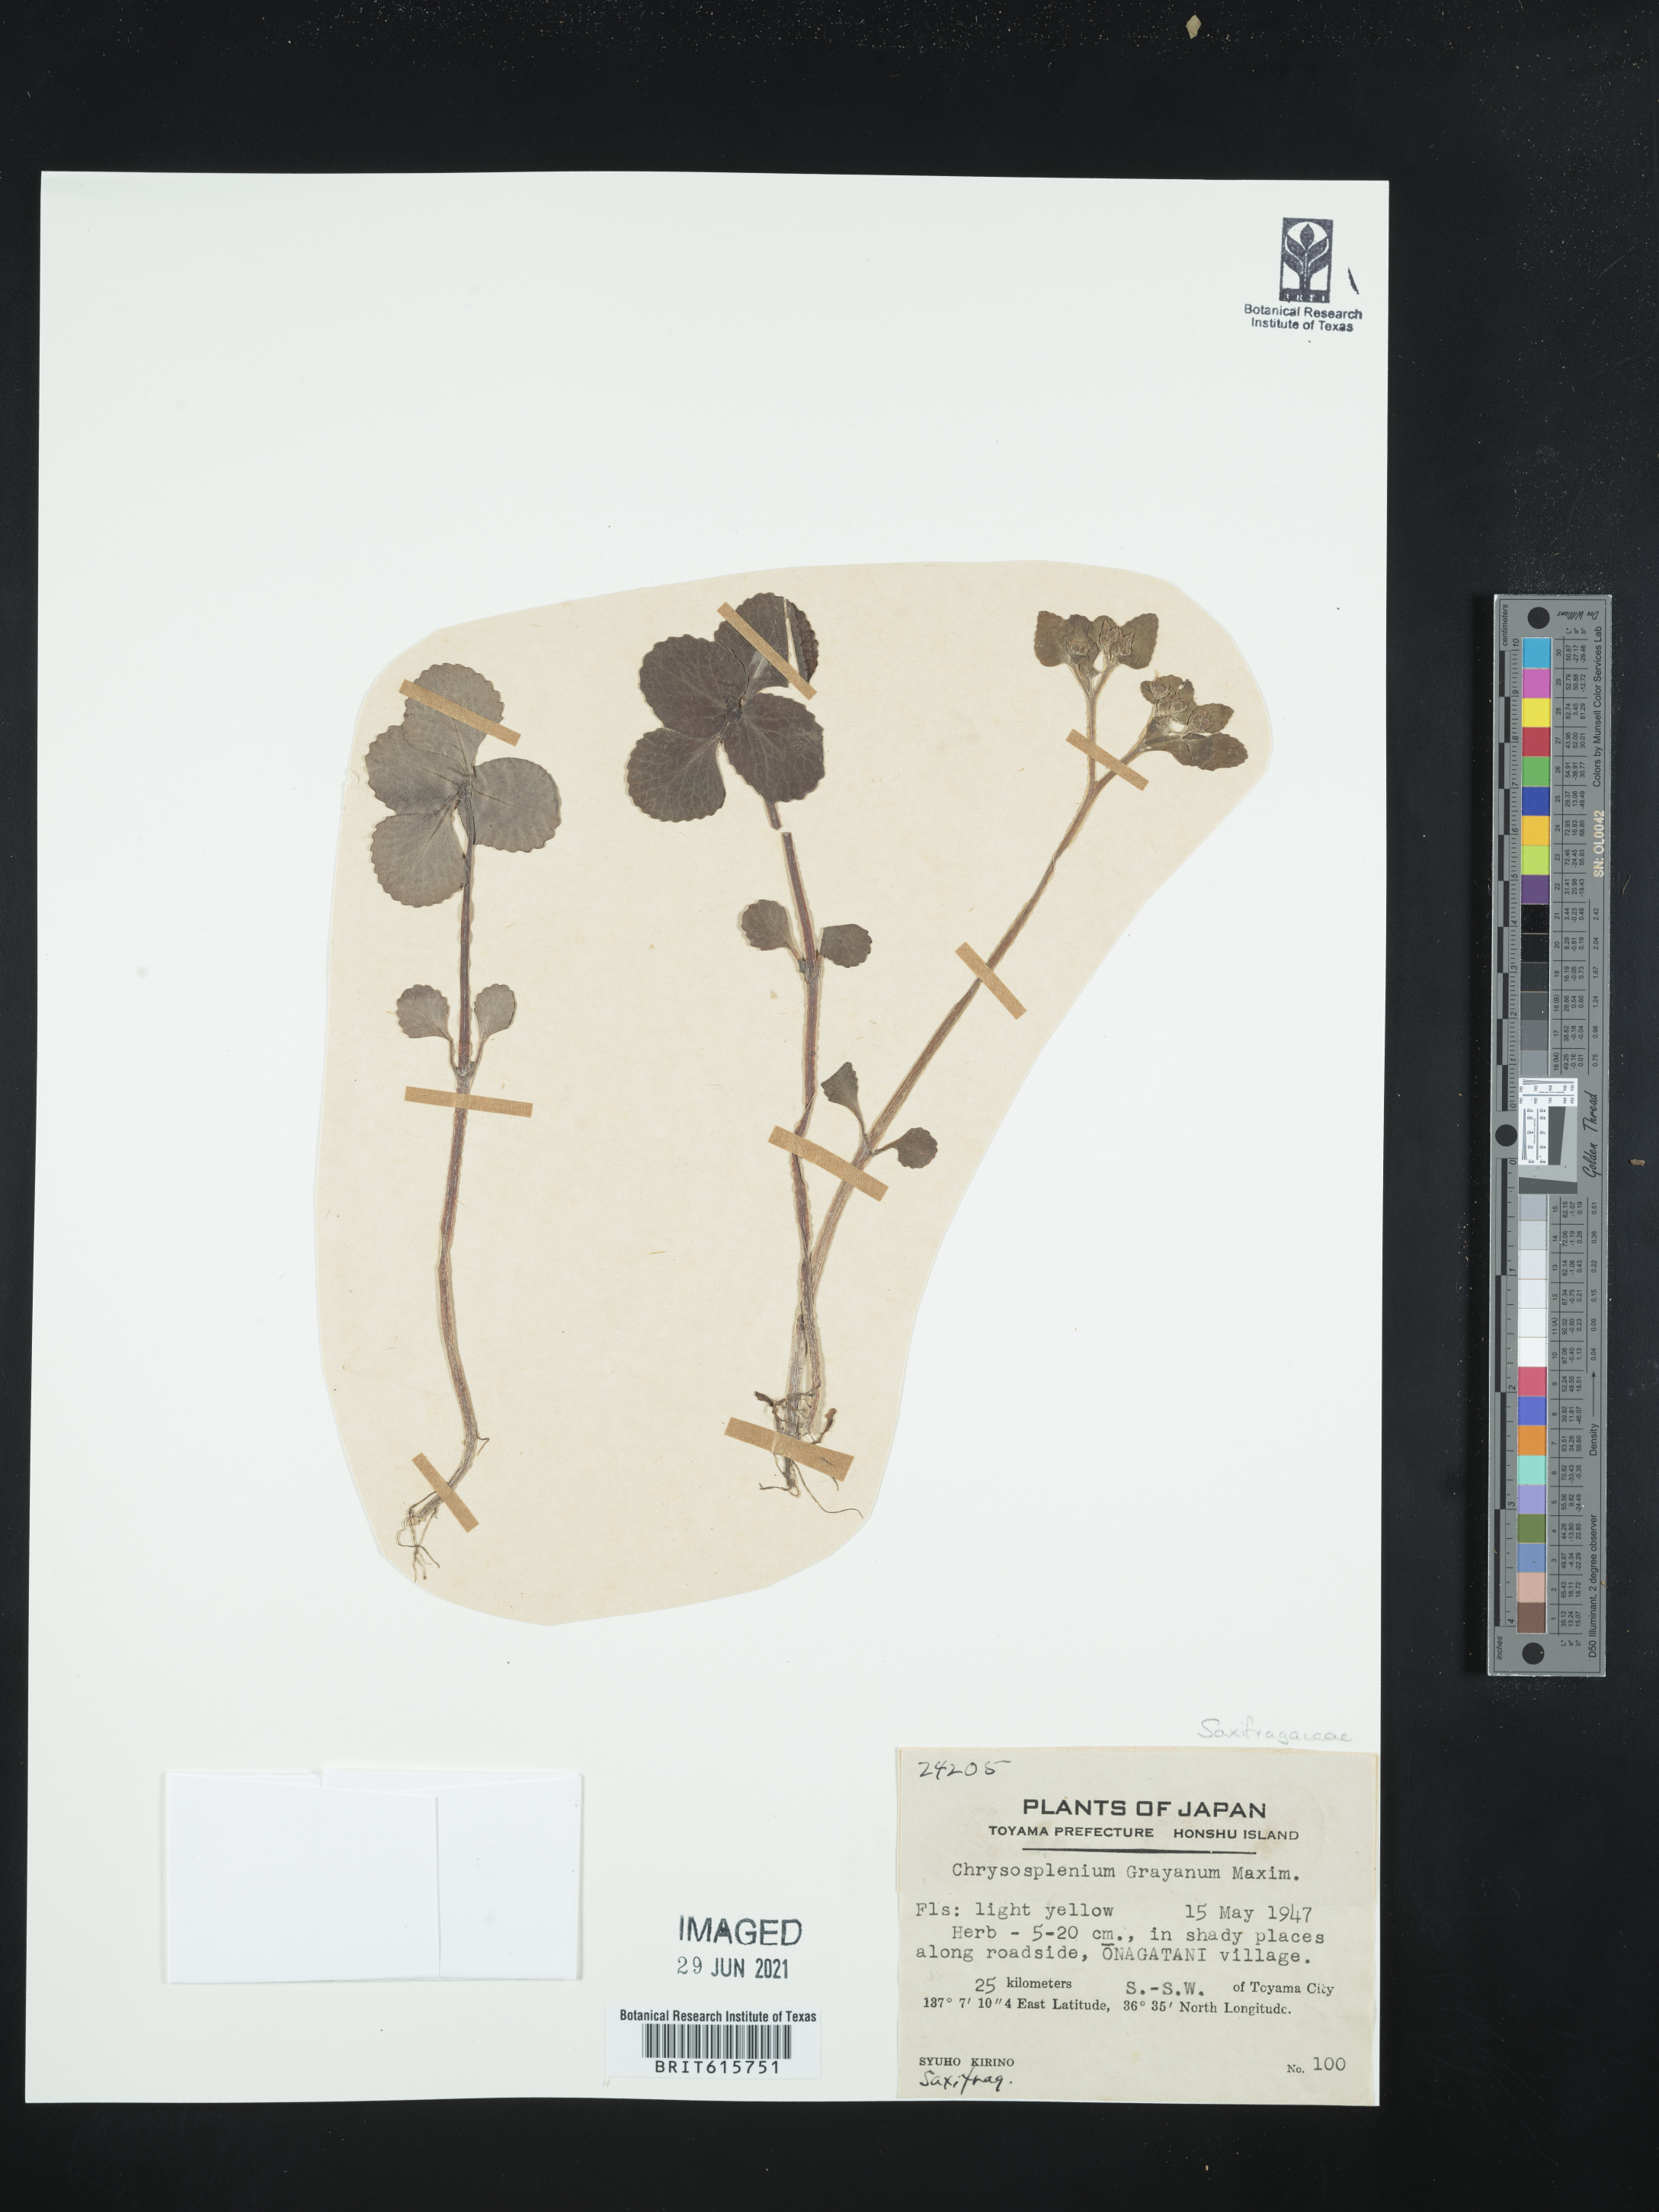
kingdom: Plantae
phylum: Tracheophyta
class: Magnoliopsida
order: Saxifragales
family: Saxifragaceae
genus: Chrysosplenium
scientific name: Chrysosplenium grayanum
